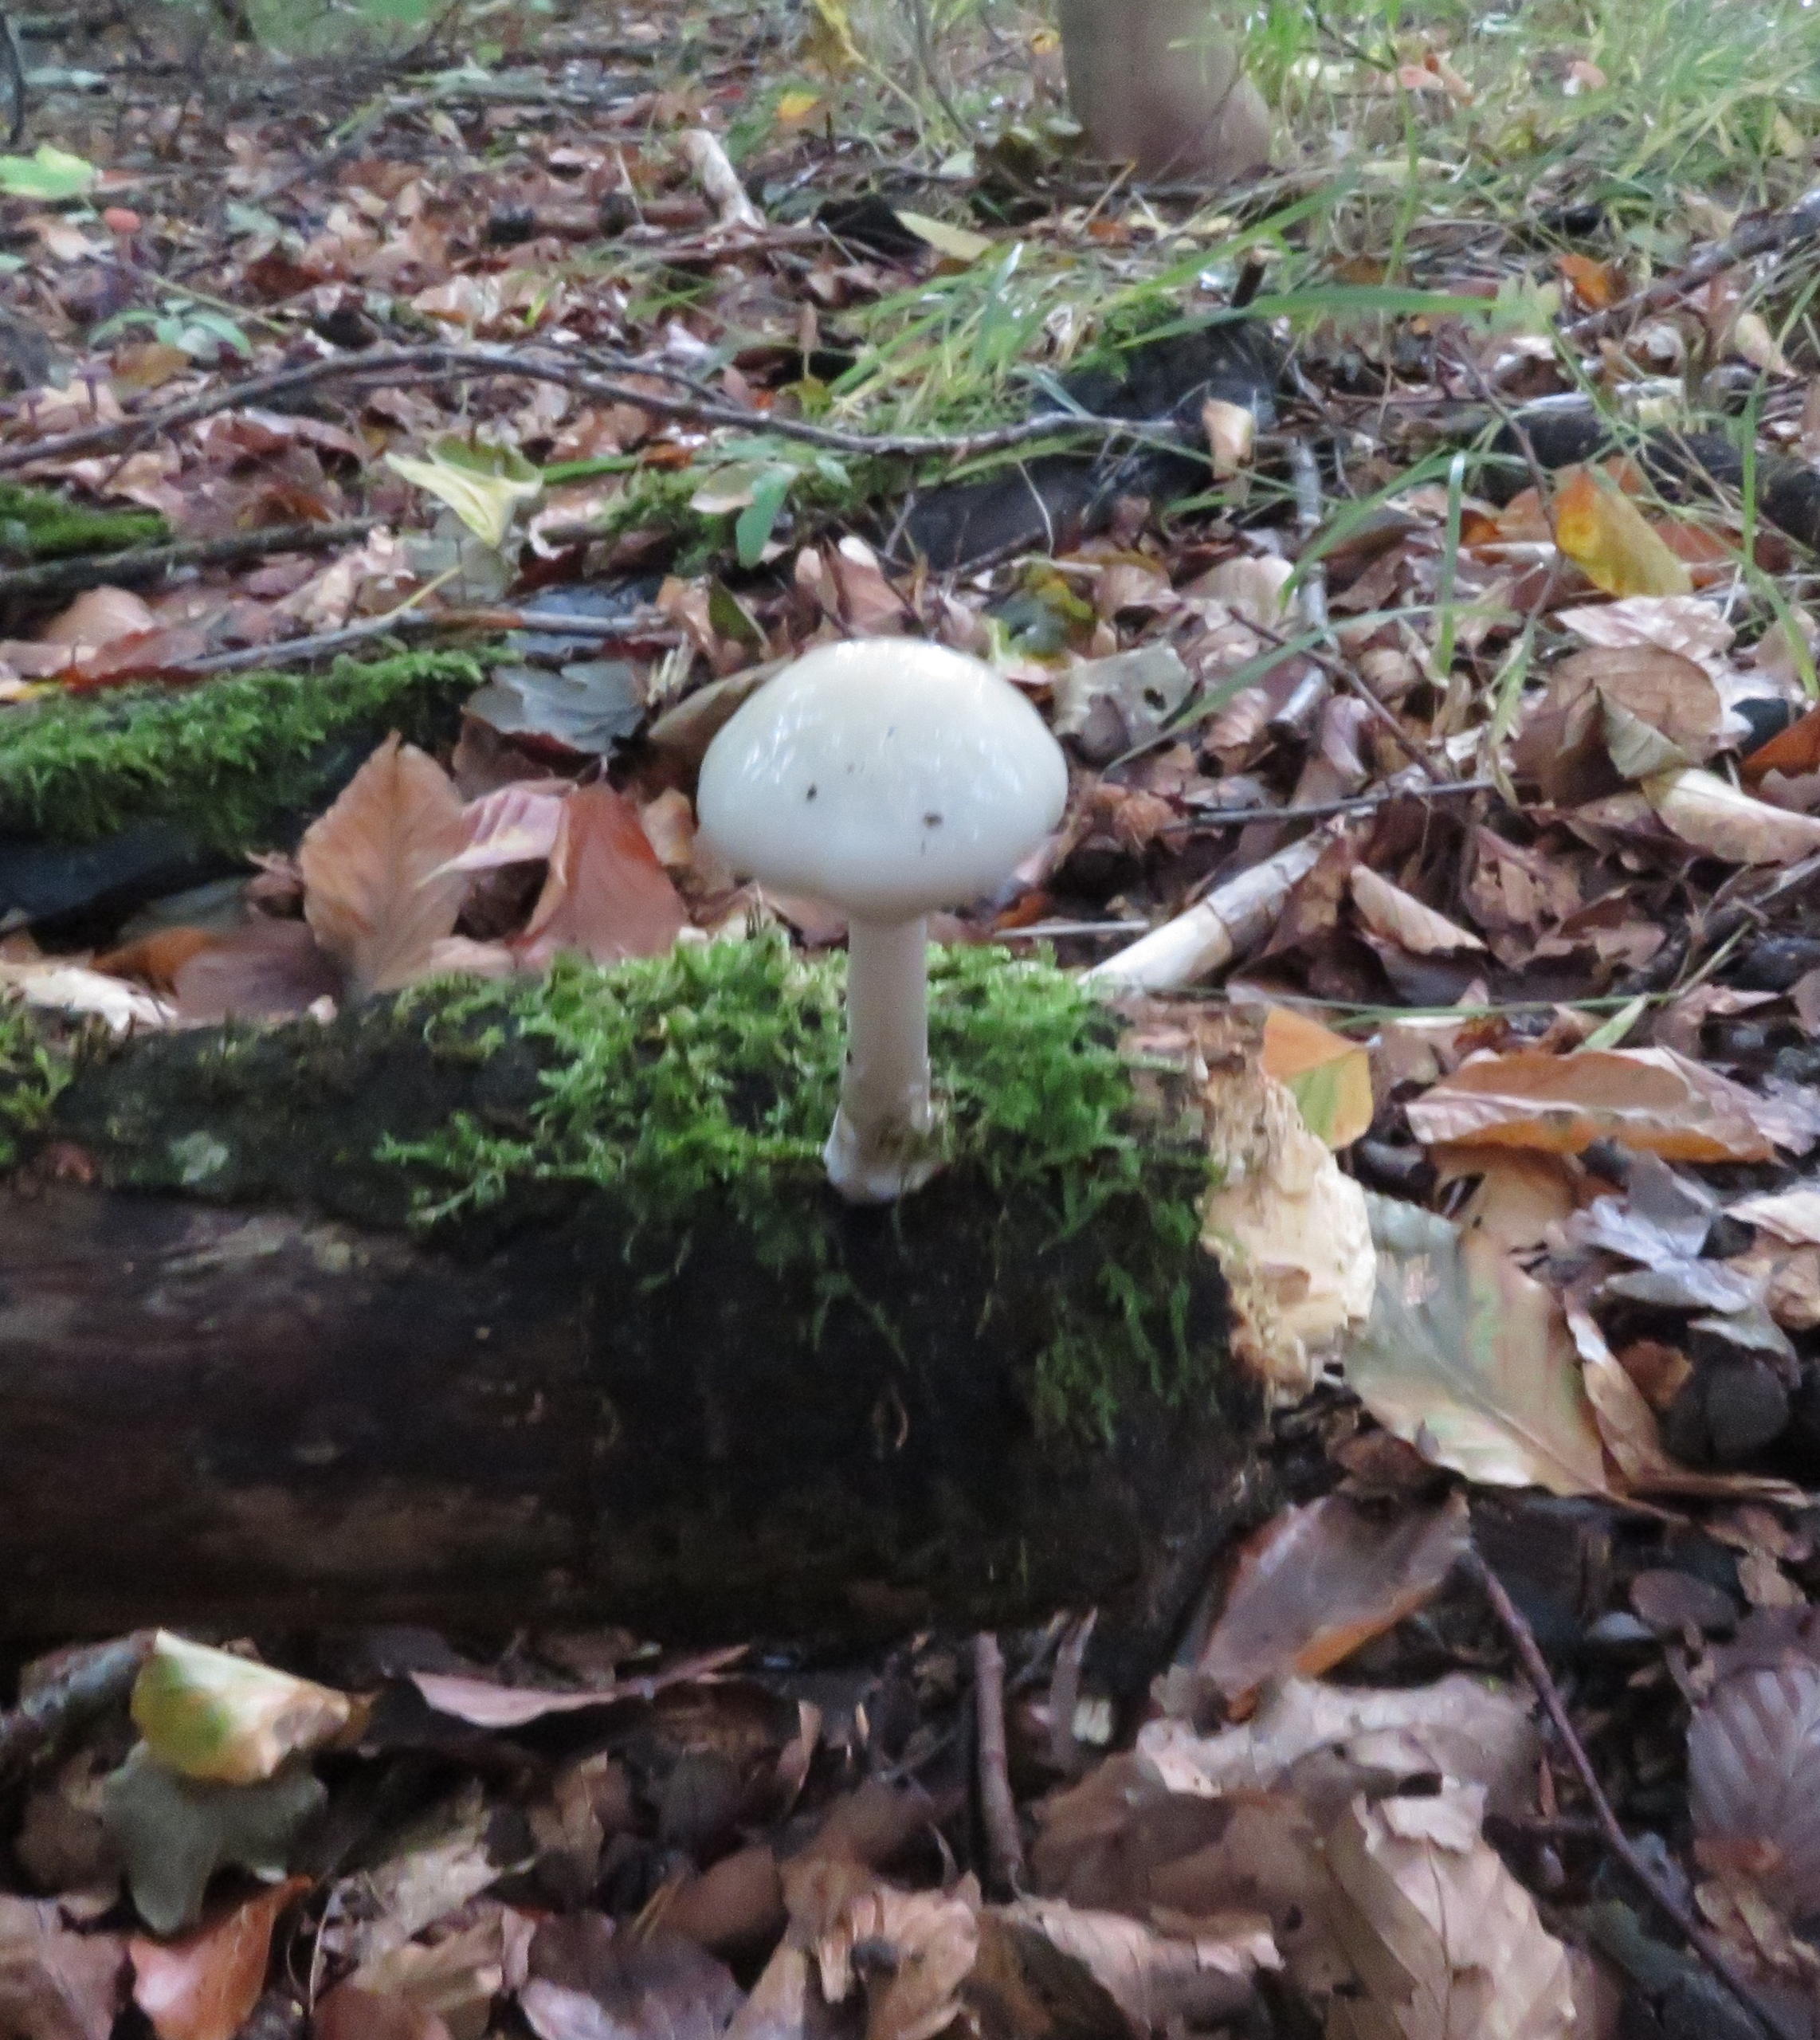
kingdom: Fungi
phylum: Basidiomycota
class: Agaricomycetes
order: Agaricales
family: Physalacriaceae
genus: Mucidula
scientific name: Mucidula mucida
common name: Porcelænshat
